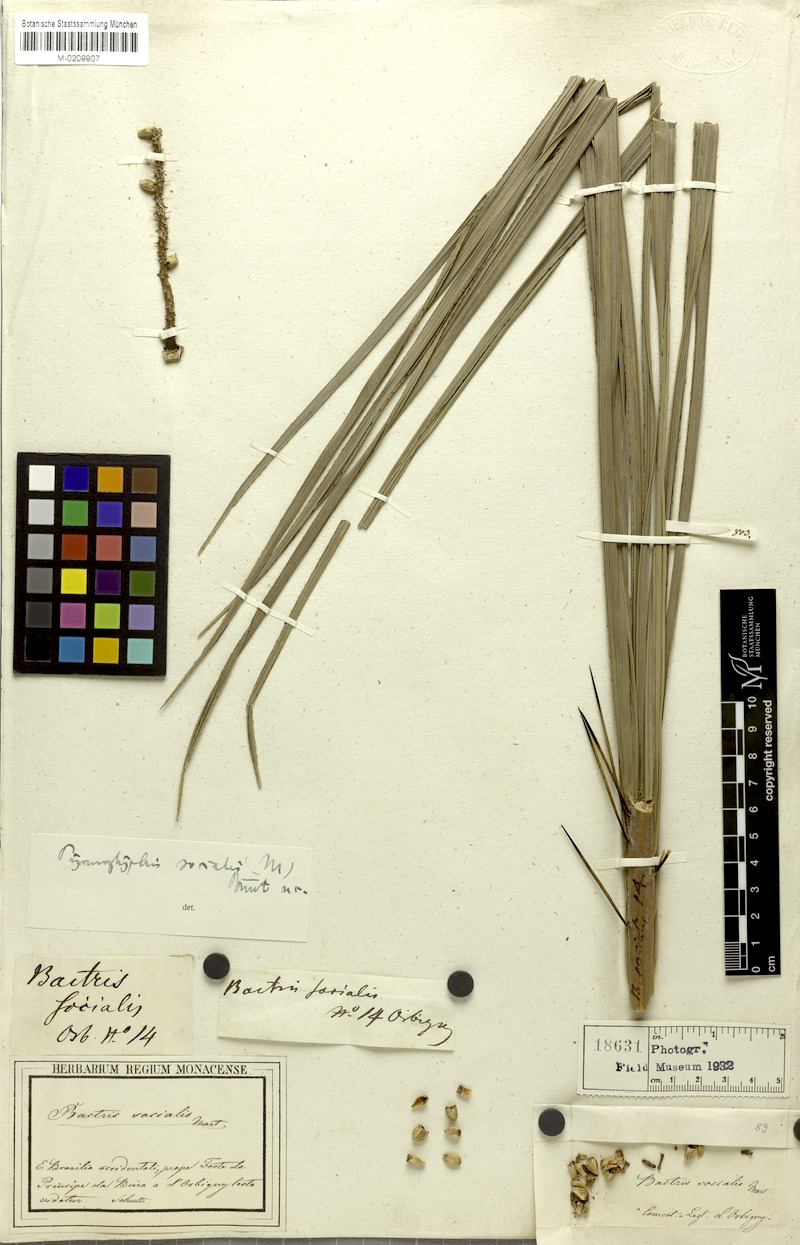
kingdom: Plantae
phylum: Tracheophyta
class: Liliopsida
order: Arecales
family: Arecaceae
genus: Bactris
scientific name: Bactris major
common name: Beach palm
